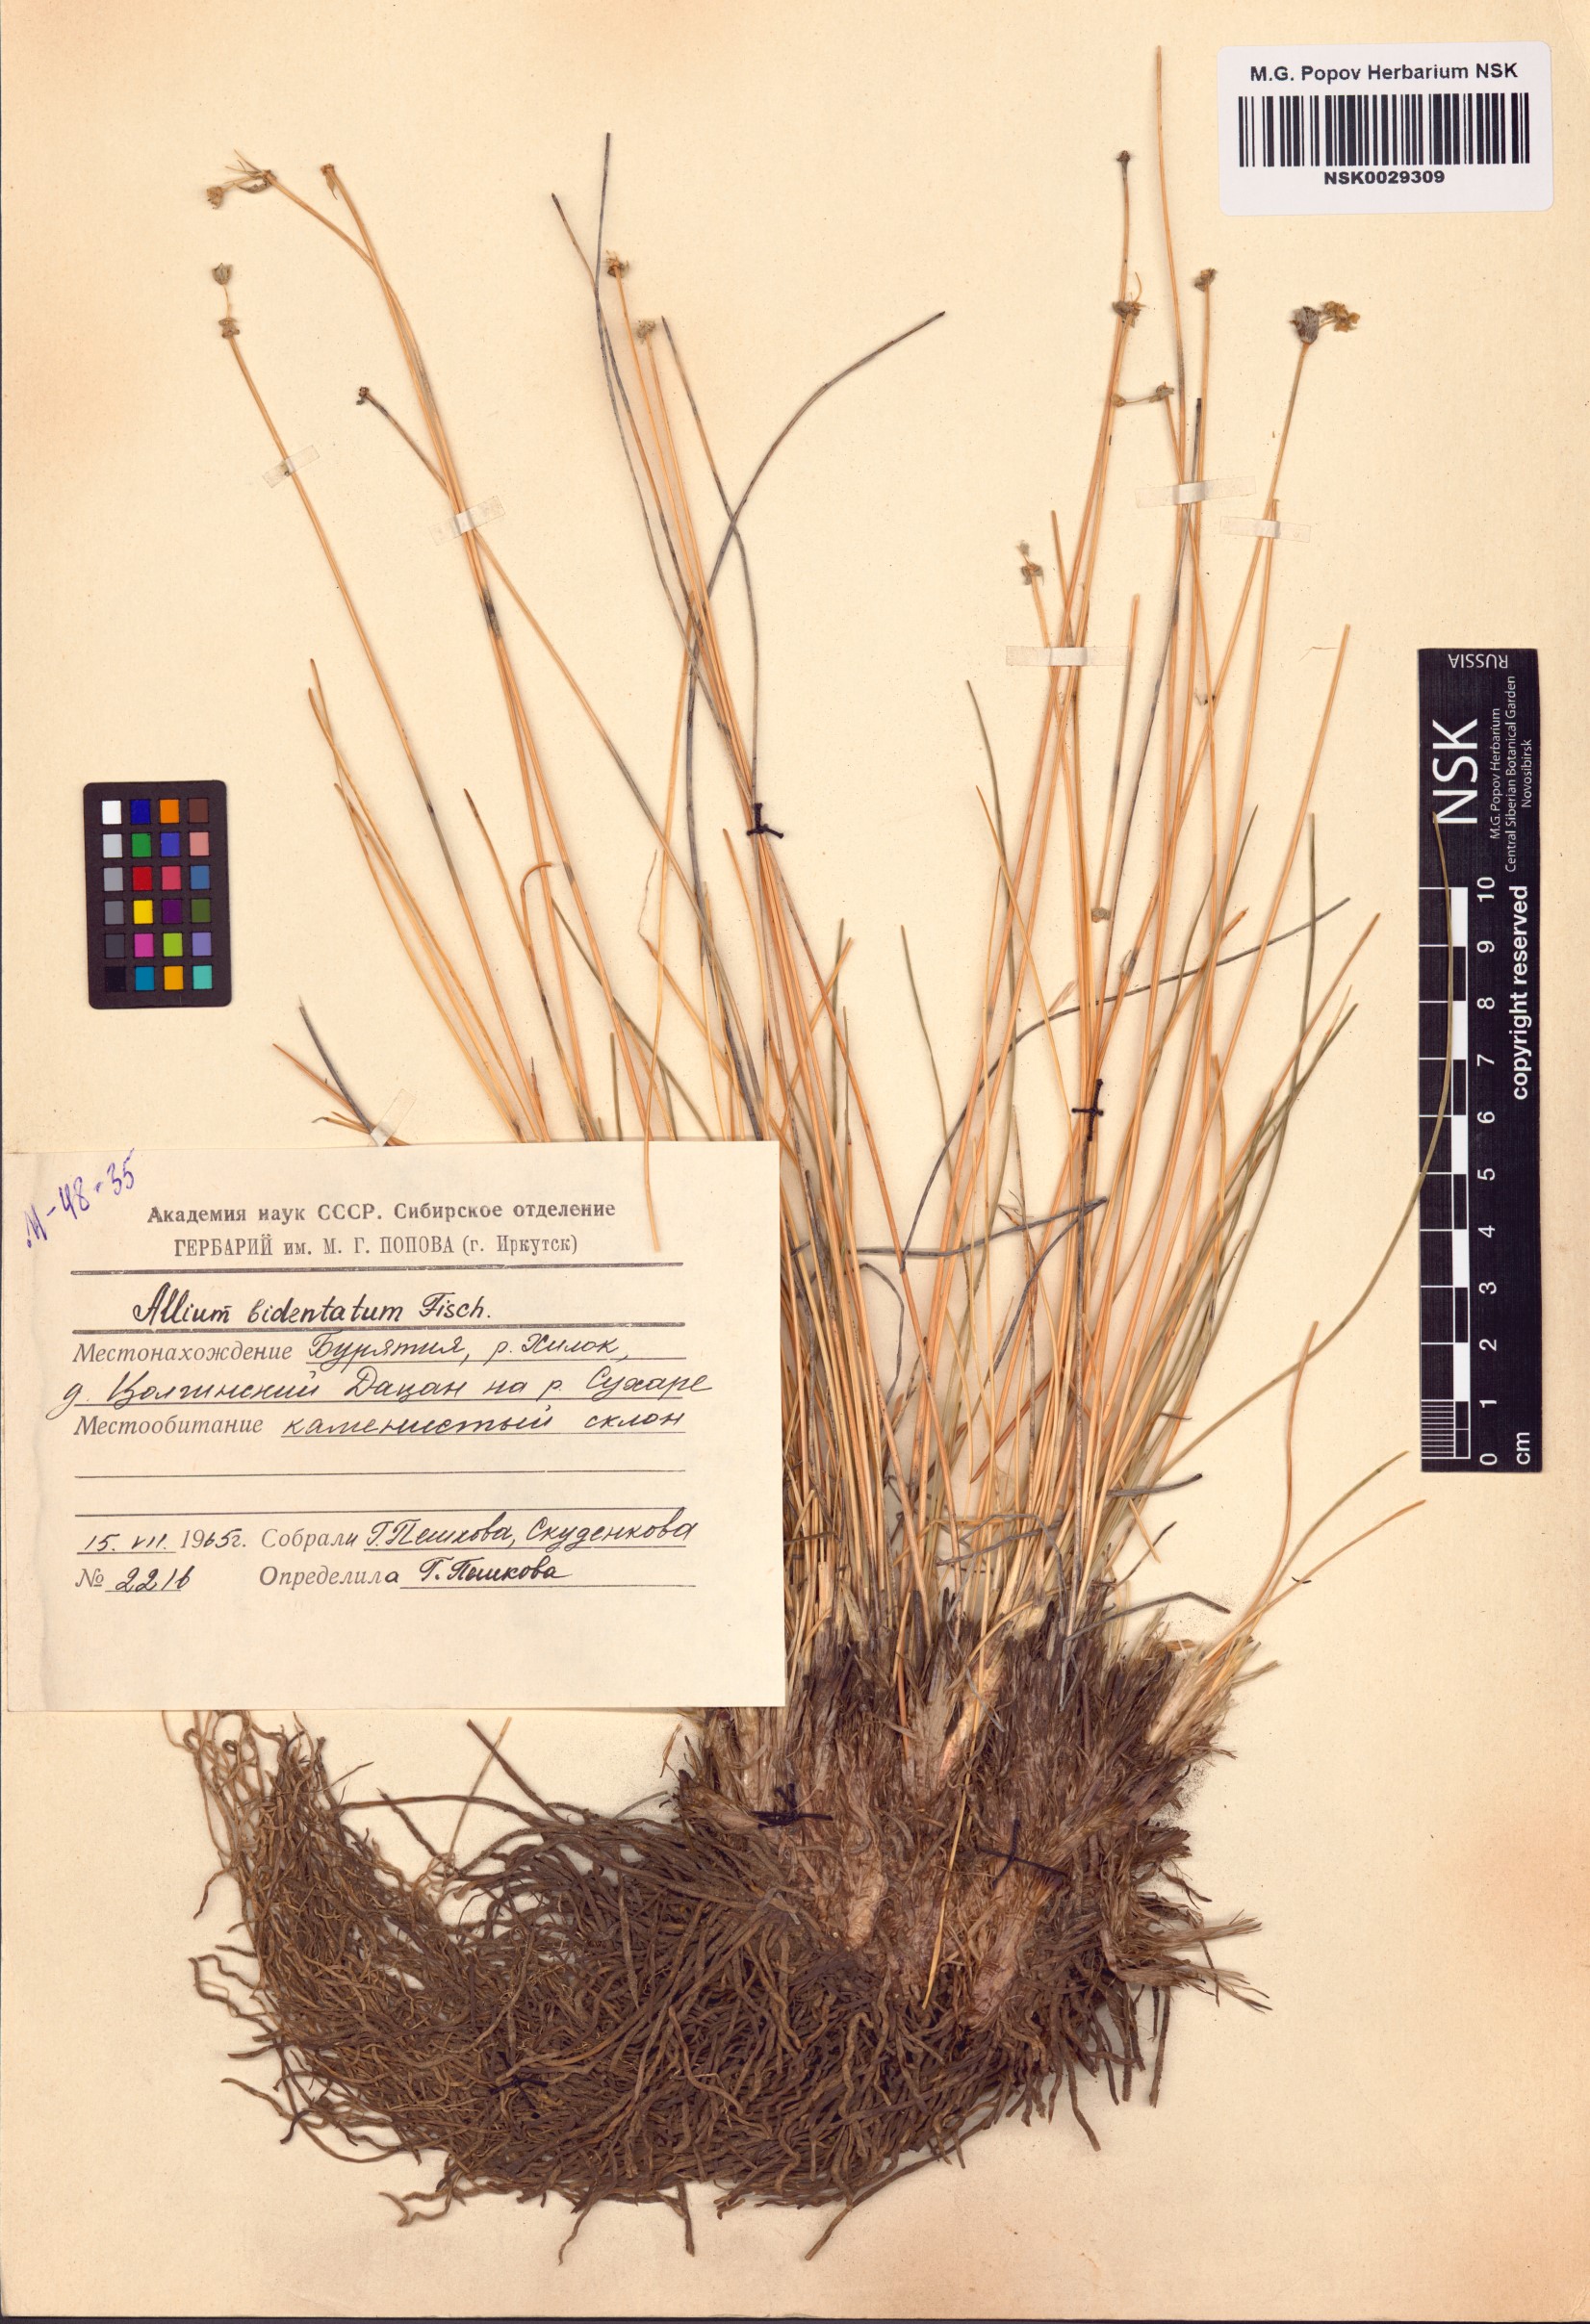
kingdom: Plantae
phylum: Tracheophyta
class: Liliopsida
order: Asparagales
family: Amaryllidaceae
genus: Allium
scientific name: Allium bidentatum
